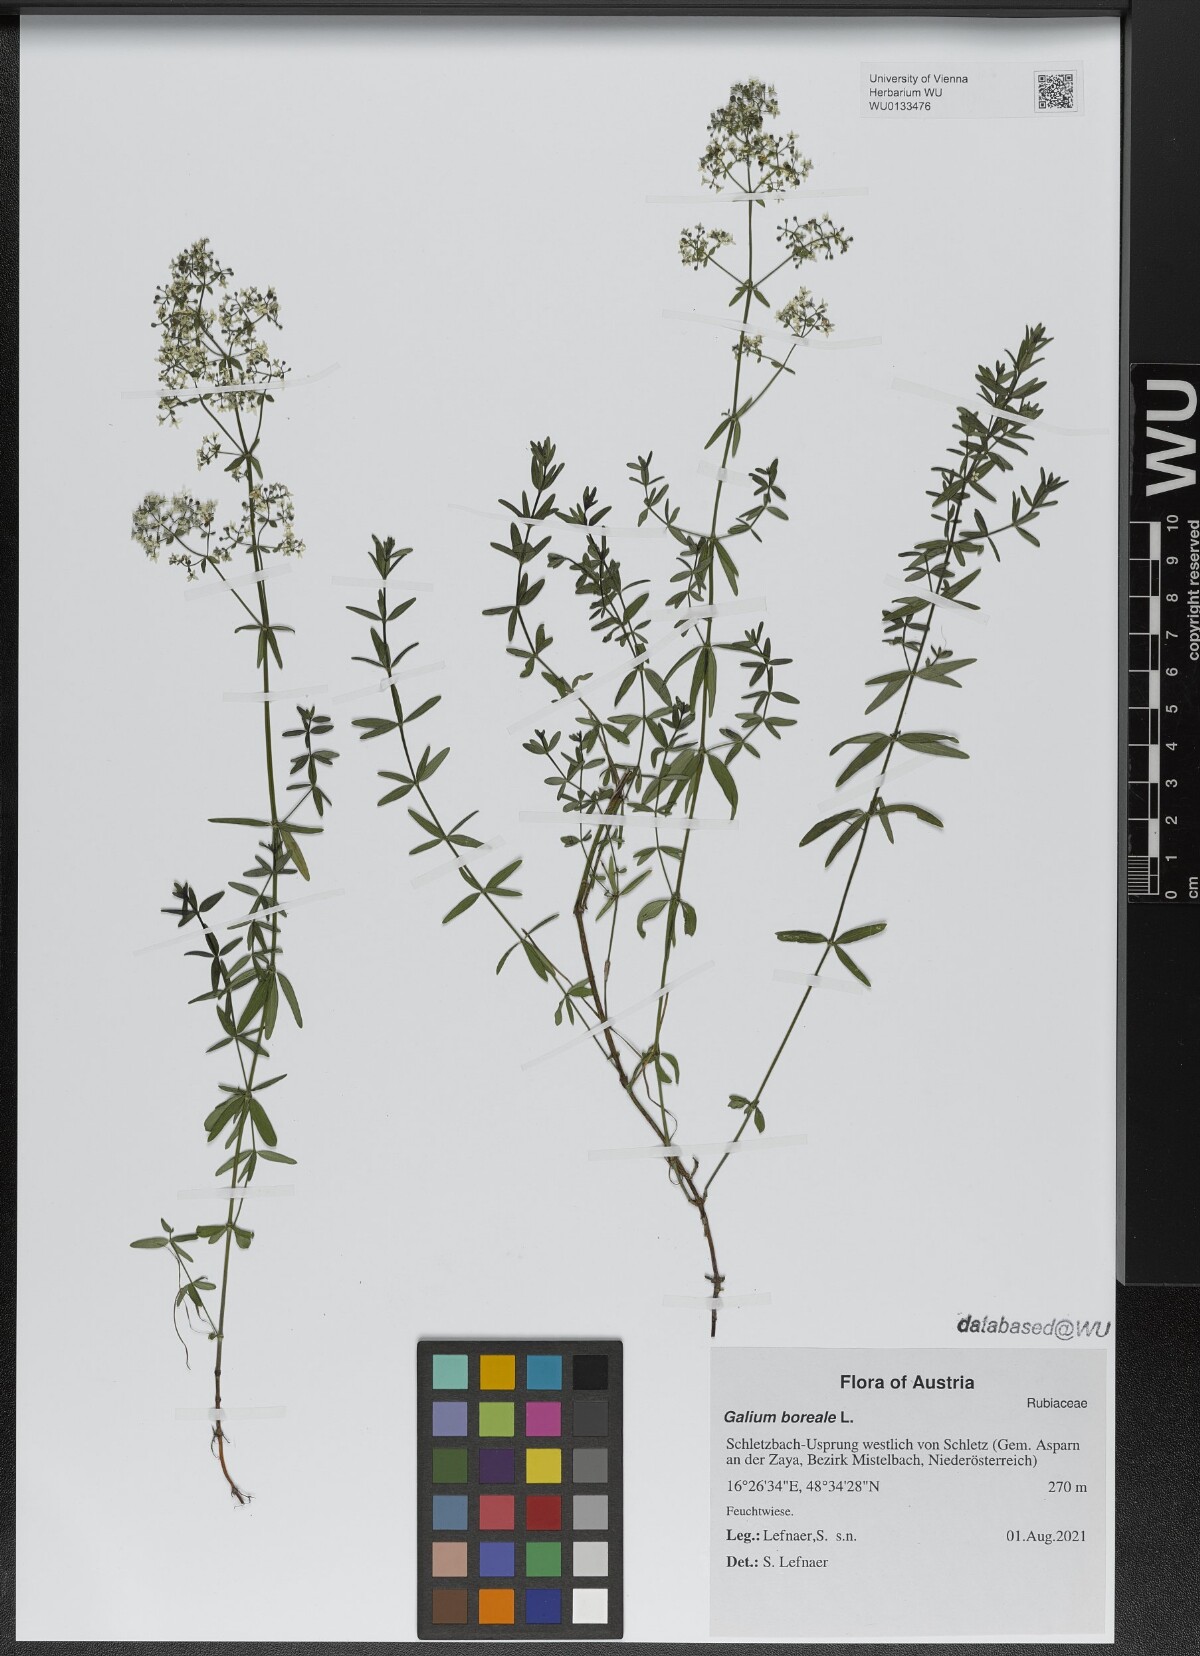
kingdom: Plantae
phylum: Tracheophyta
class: Magnoliopsida
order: Gentianales
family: Rubiaceae
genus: Galium
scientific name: Galium boreale
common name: Northern bedstraw
